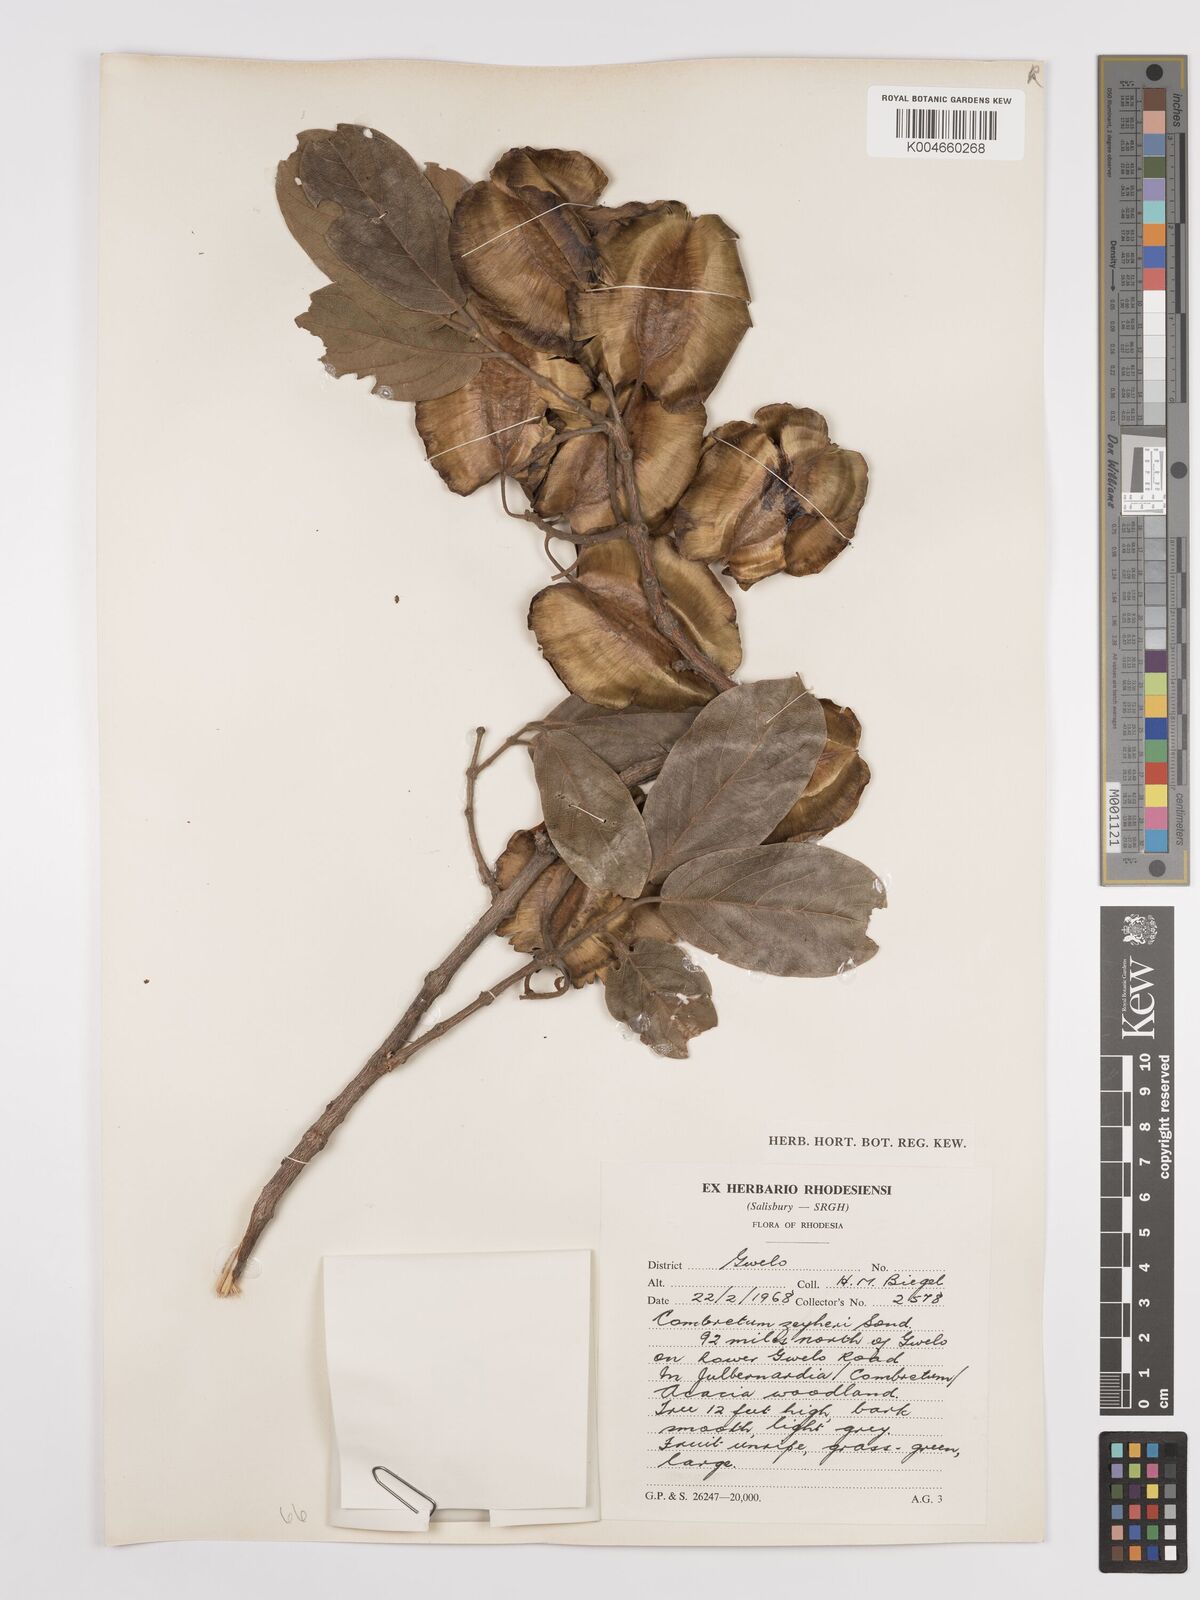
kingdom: Plantae
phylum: Tracheophyta
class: Magnoliopsida
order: Myrtales
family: Combretaceae
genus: Combretum
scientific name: Combretum zeyheri
